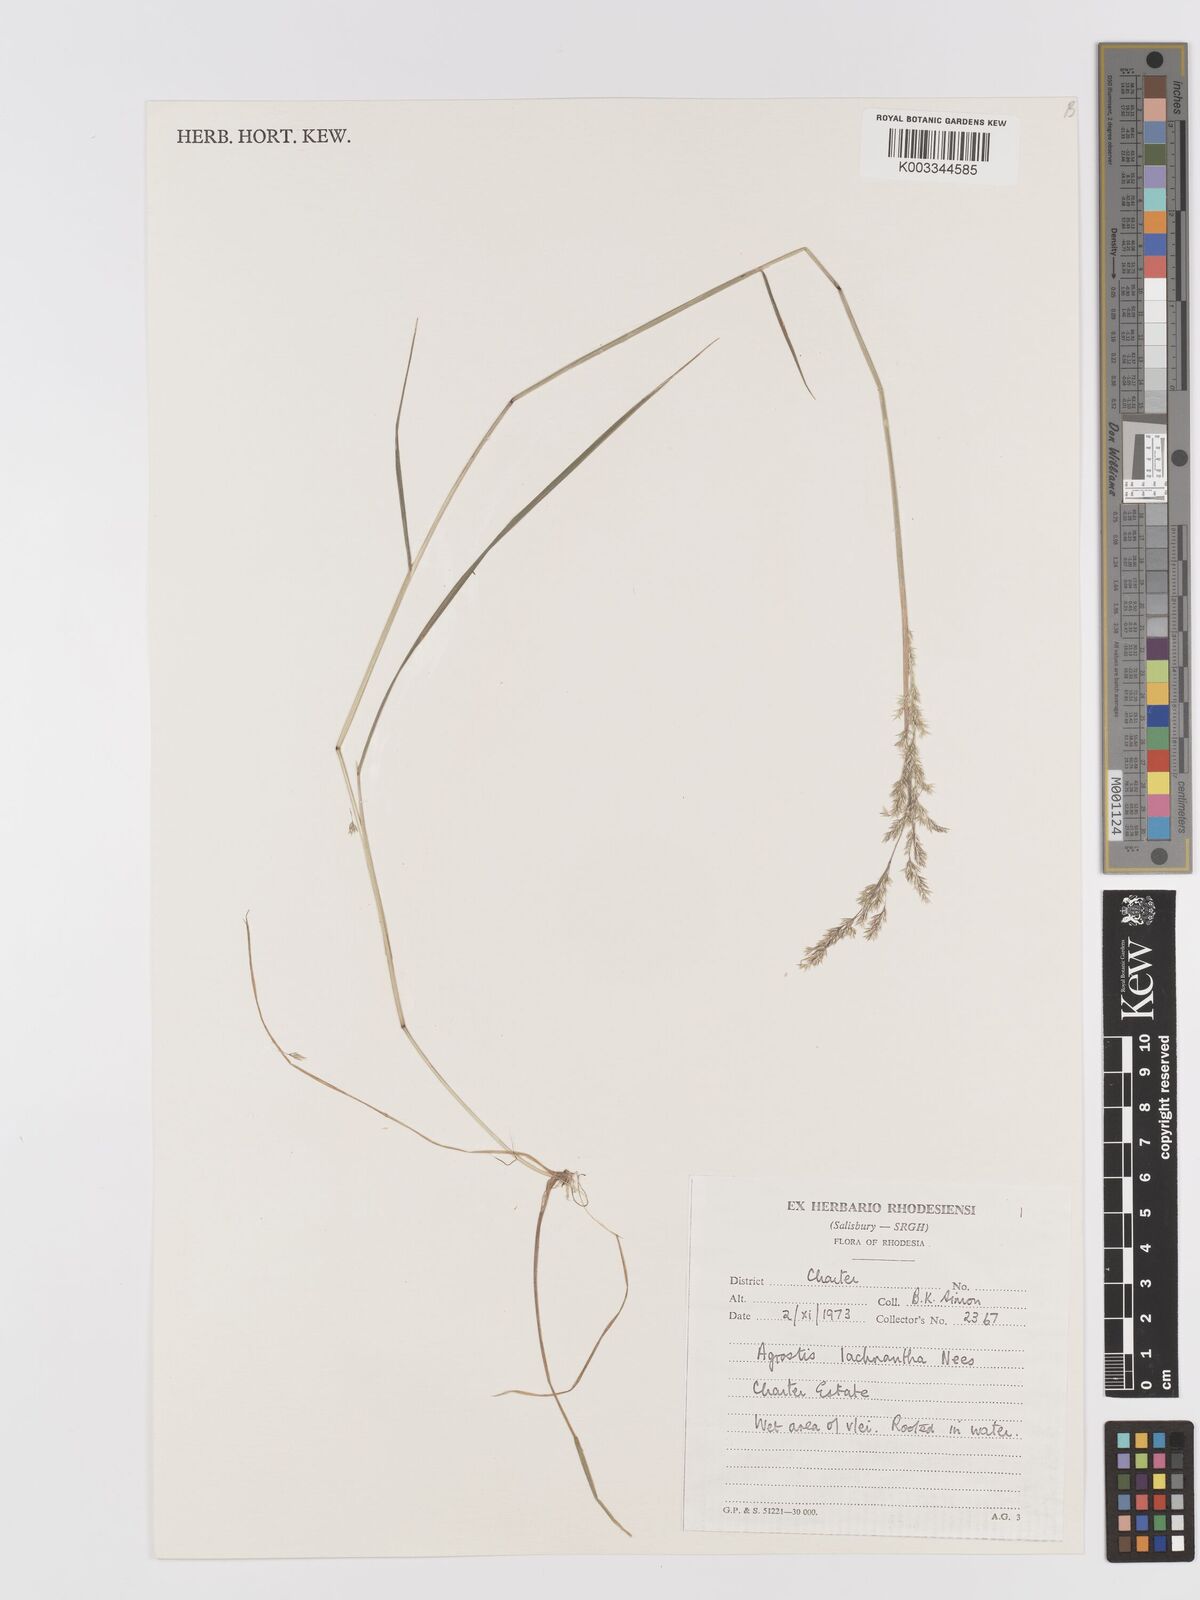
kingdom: Plantae
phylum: Tracheophyta
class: Liliopsida
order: Poales
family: Poaceae
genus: Lachnagrostis
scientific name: Lachnagrostis lachnantha
